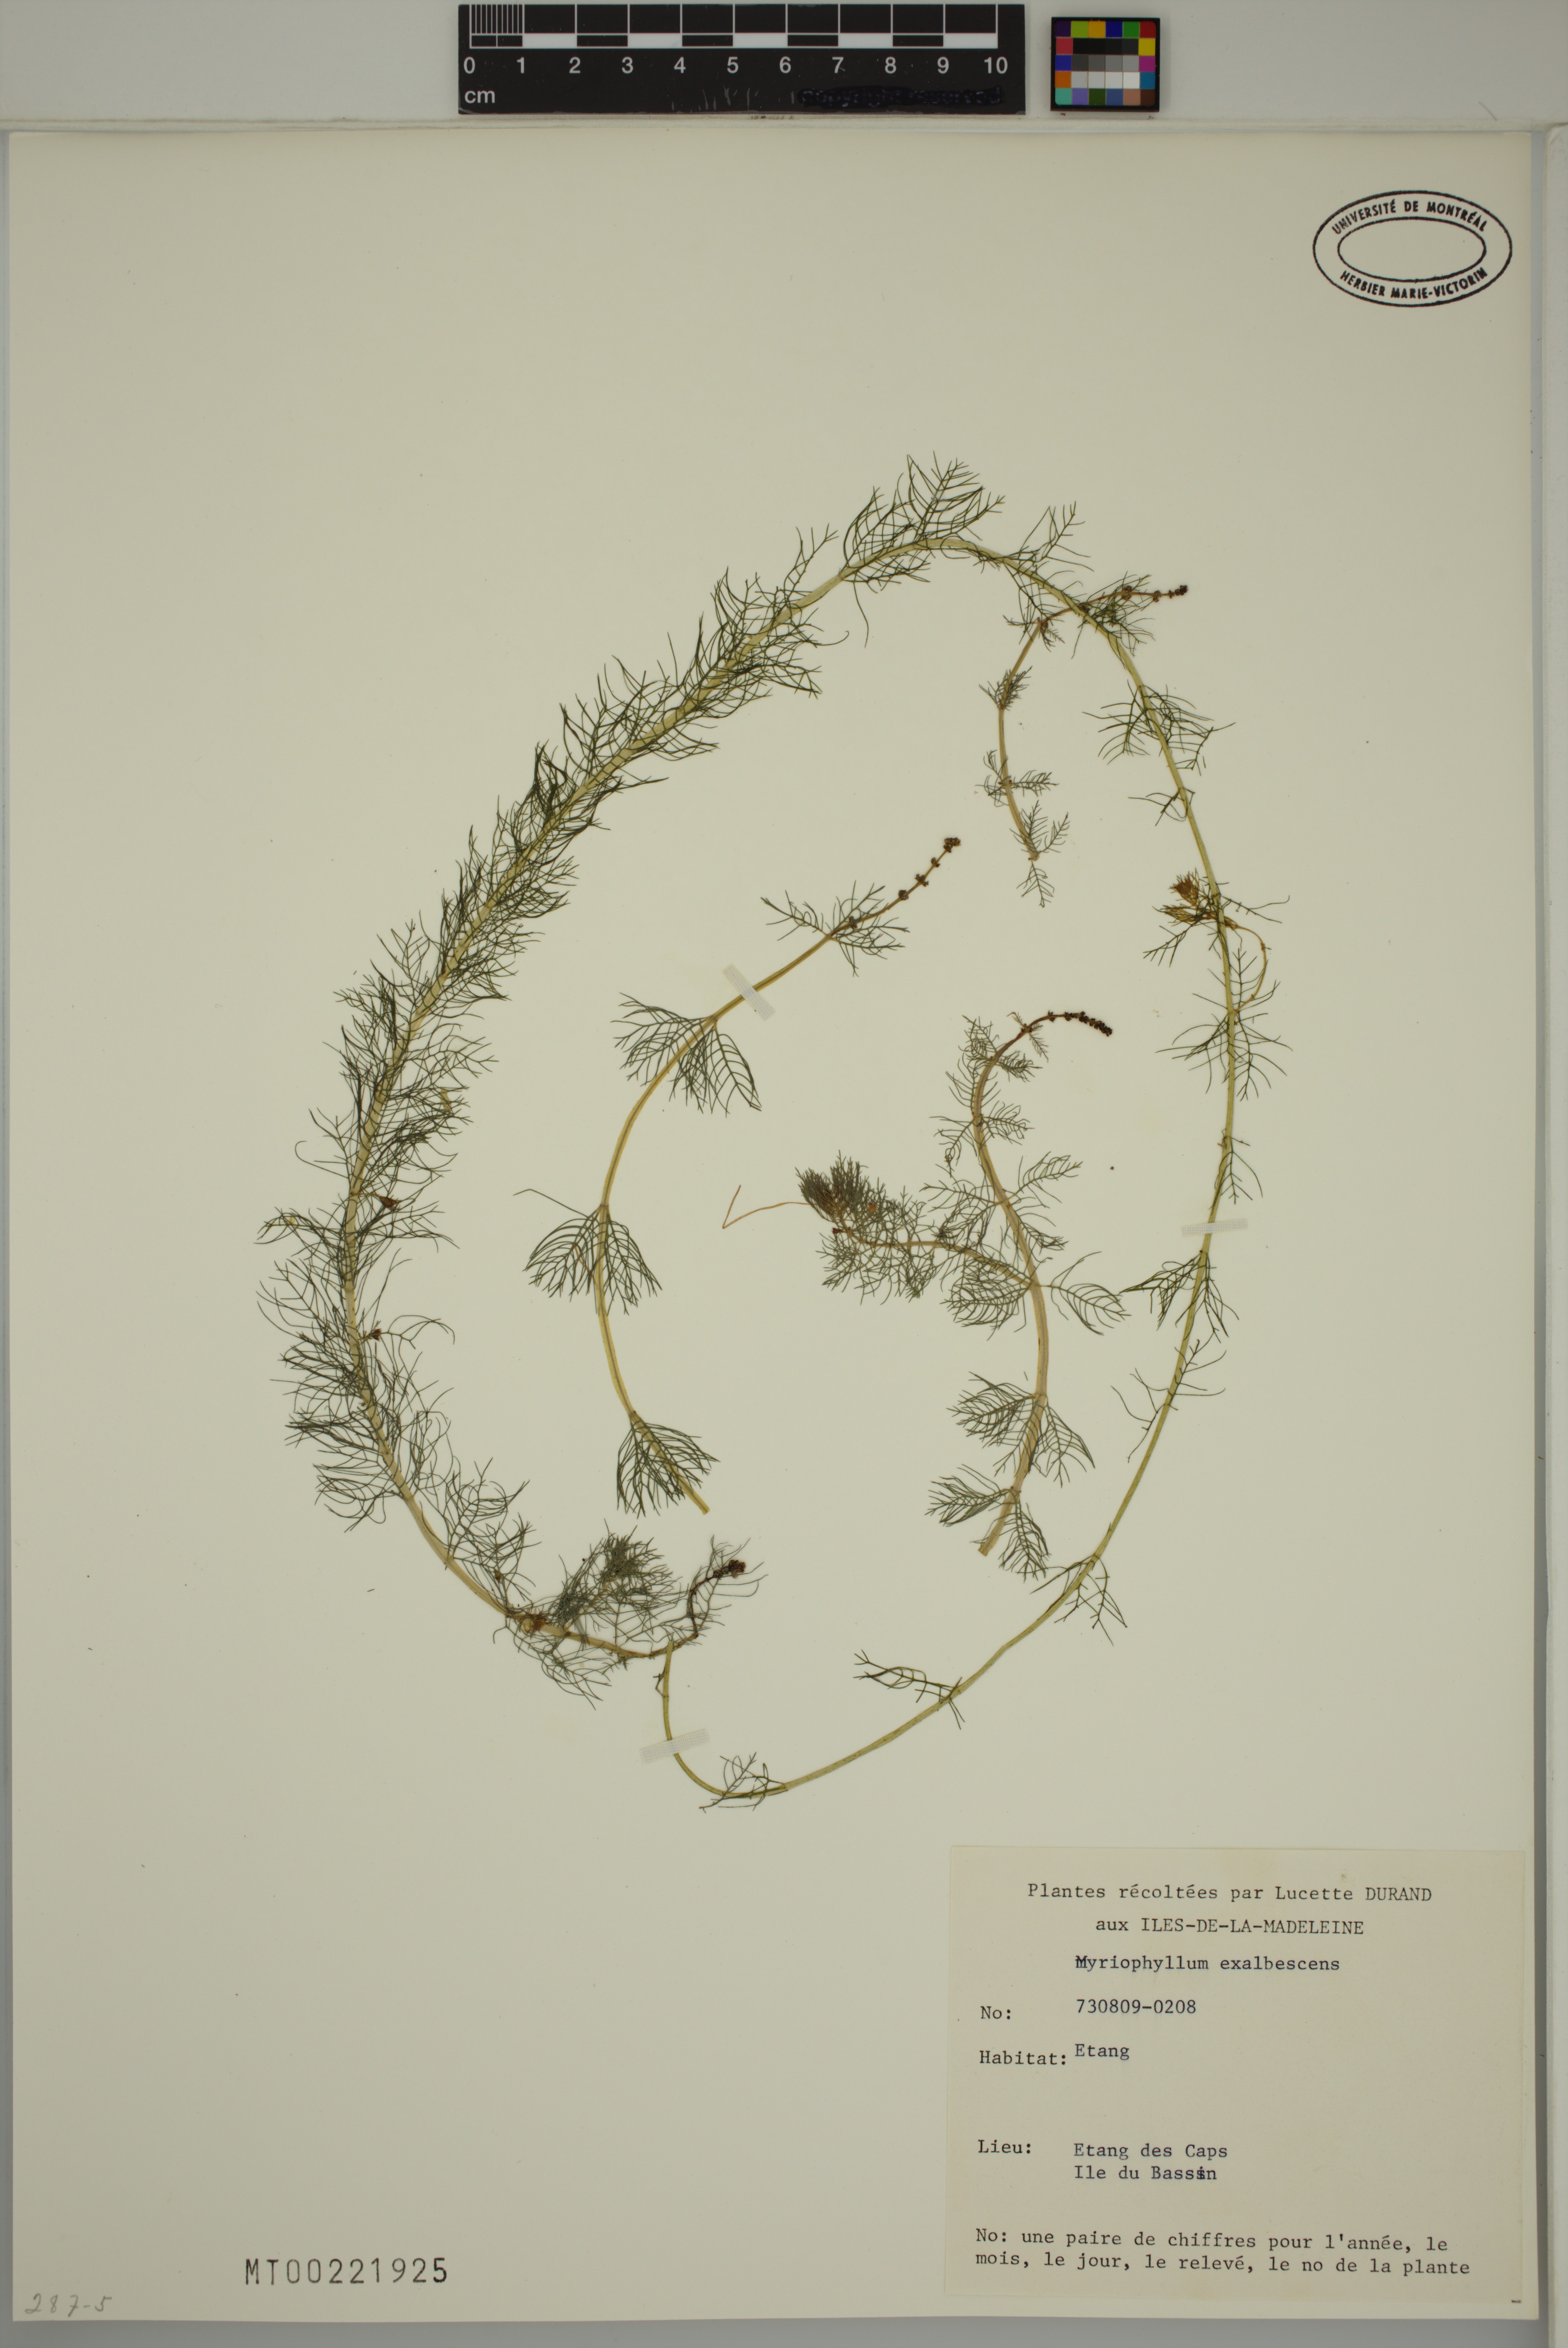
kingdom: Plantae
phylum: Tracheophyta
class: Magnoliopsida
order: Saxifragales
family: Haloragaceae
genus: Myriophyllum
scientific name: Myriophyllum sibiricum
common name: Siberian water-milfoil
